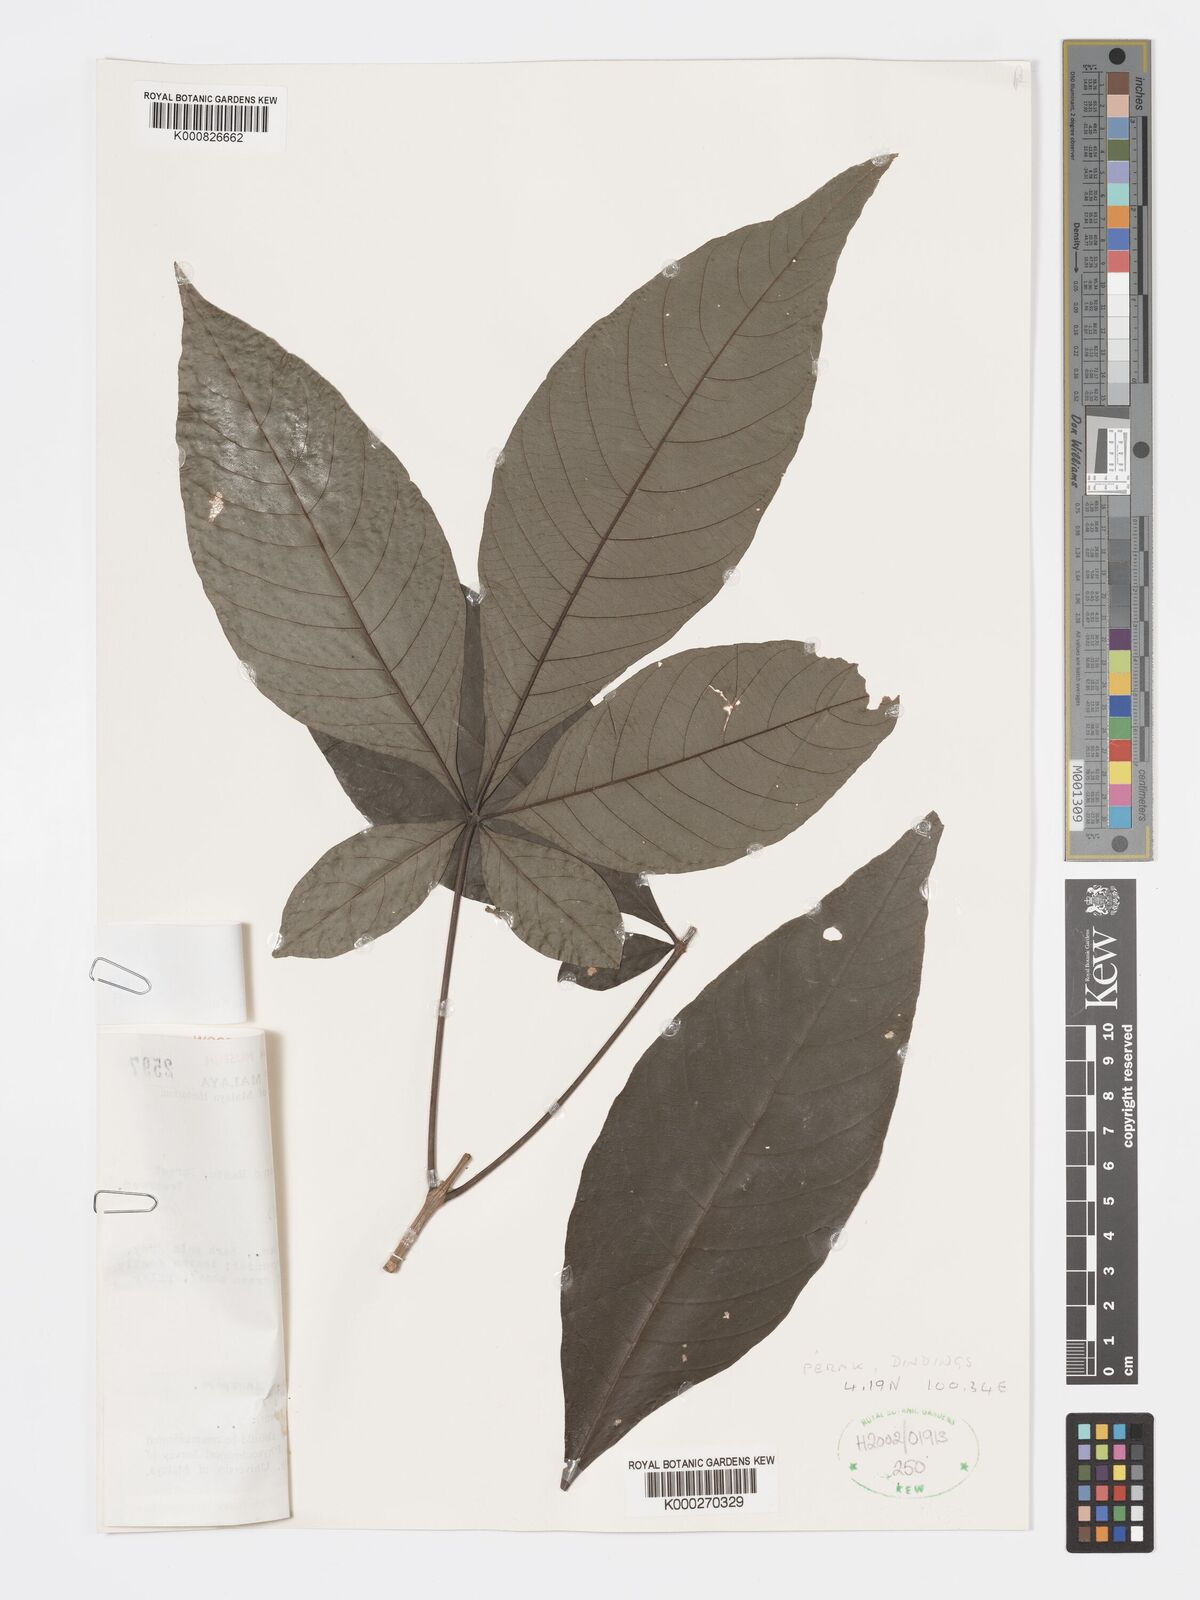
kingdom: Plantae
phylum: Tracheophyta
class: Magnoliopsida
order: Lamiales
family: Lamiaceae
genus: Vitex
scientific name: Vitex
